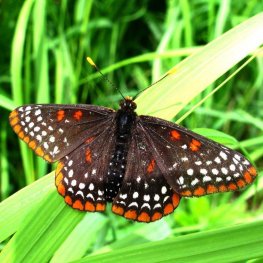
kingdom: Animalia
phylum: Arthropoda
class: Insecta
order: Lepidoptera
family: Nymphalidae
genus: Euphydryas
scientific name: Euphydryas phaeton
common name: Baltimore Checkerspot
